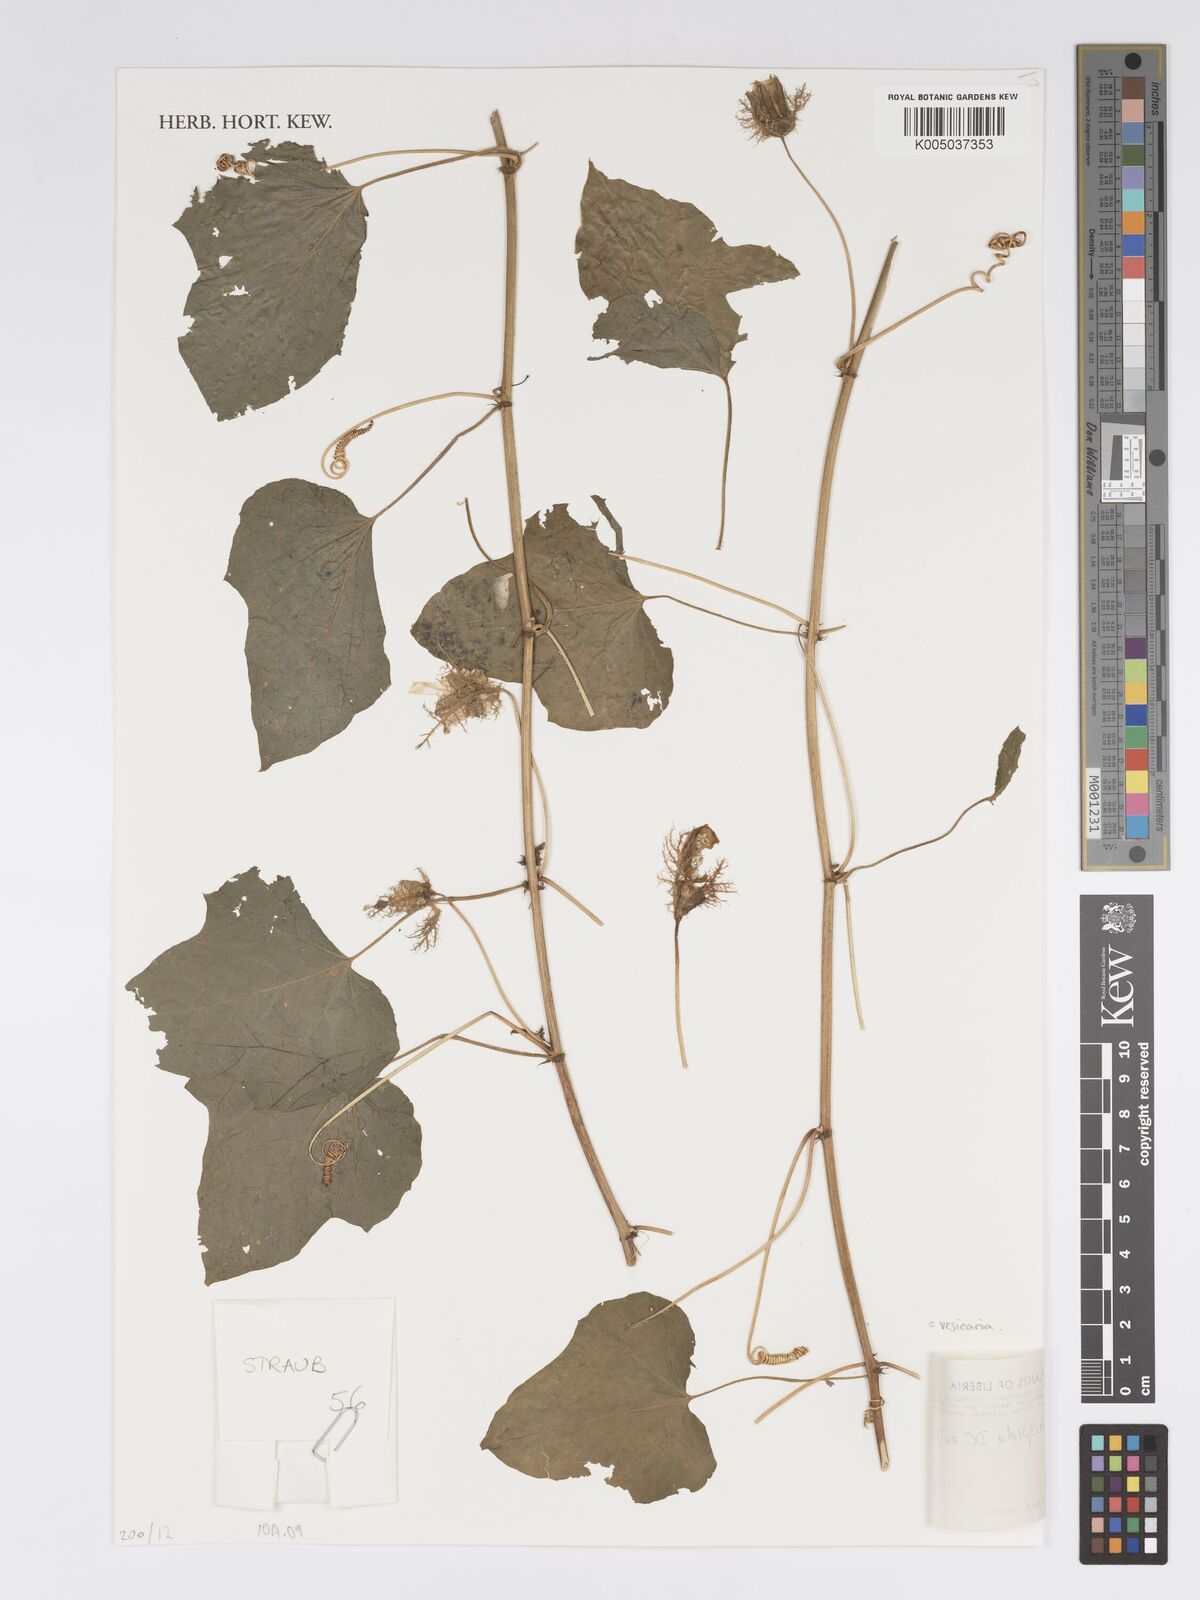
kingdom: Plantae
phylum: Tracheophyta
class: Magnoliopsida
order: Malpighiales
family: Passifloraceae
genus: Passiflora
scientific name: Passiflora vesicaria
